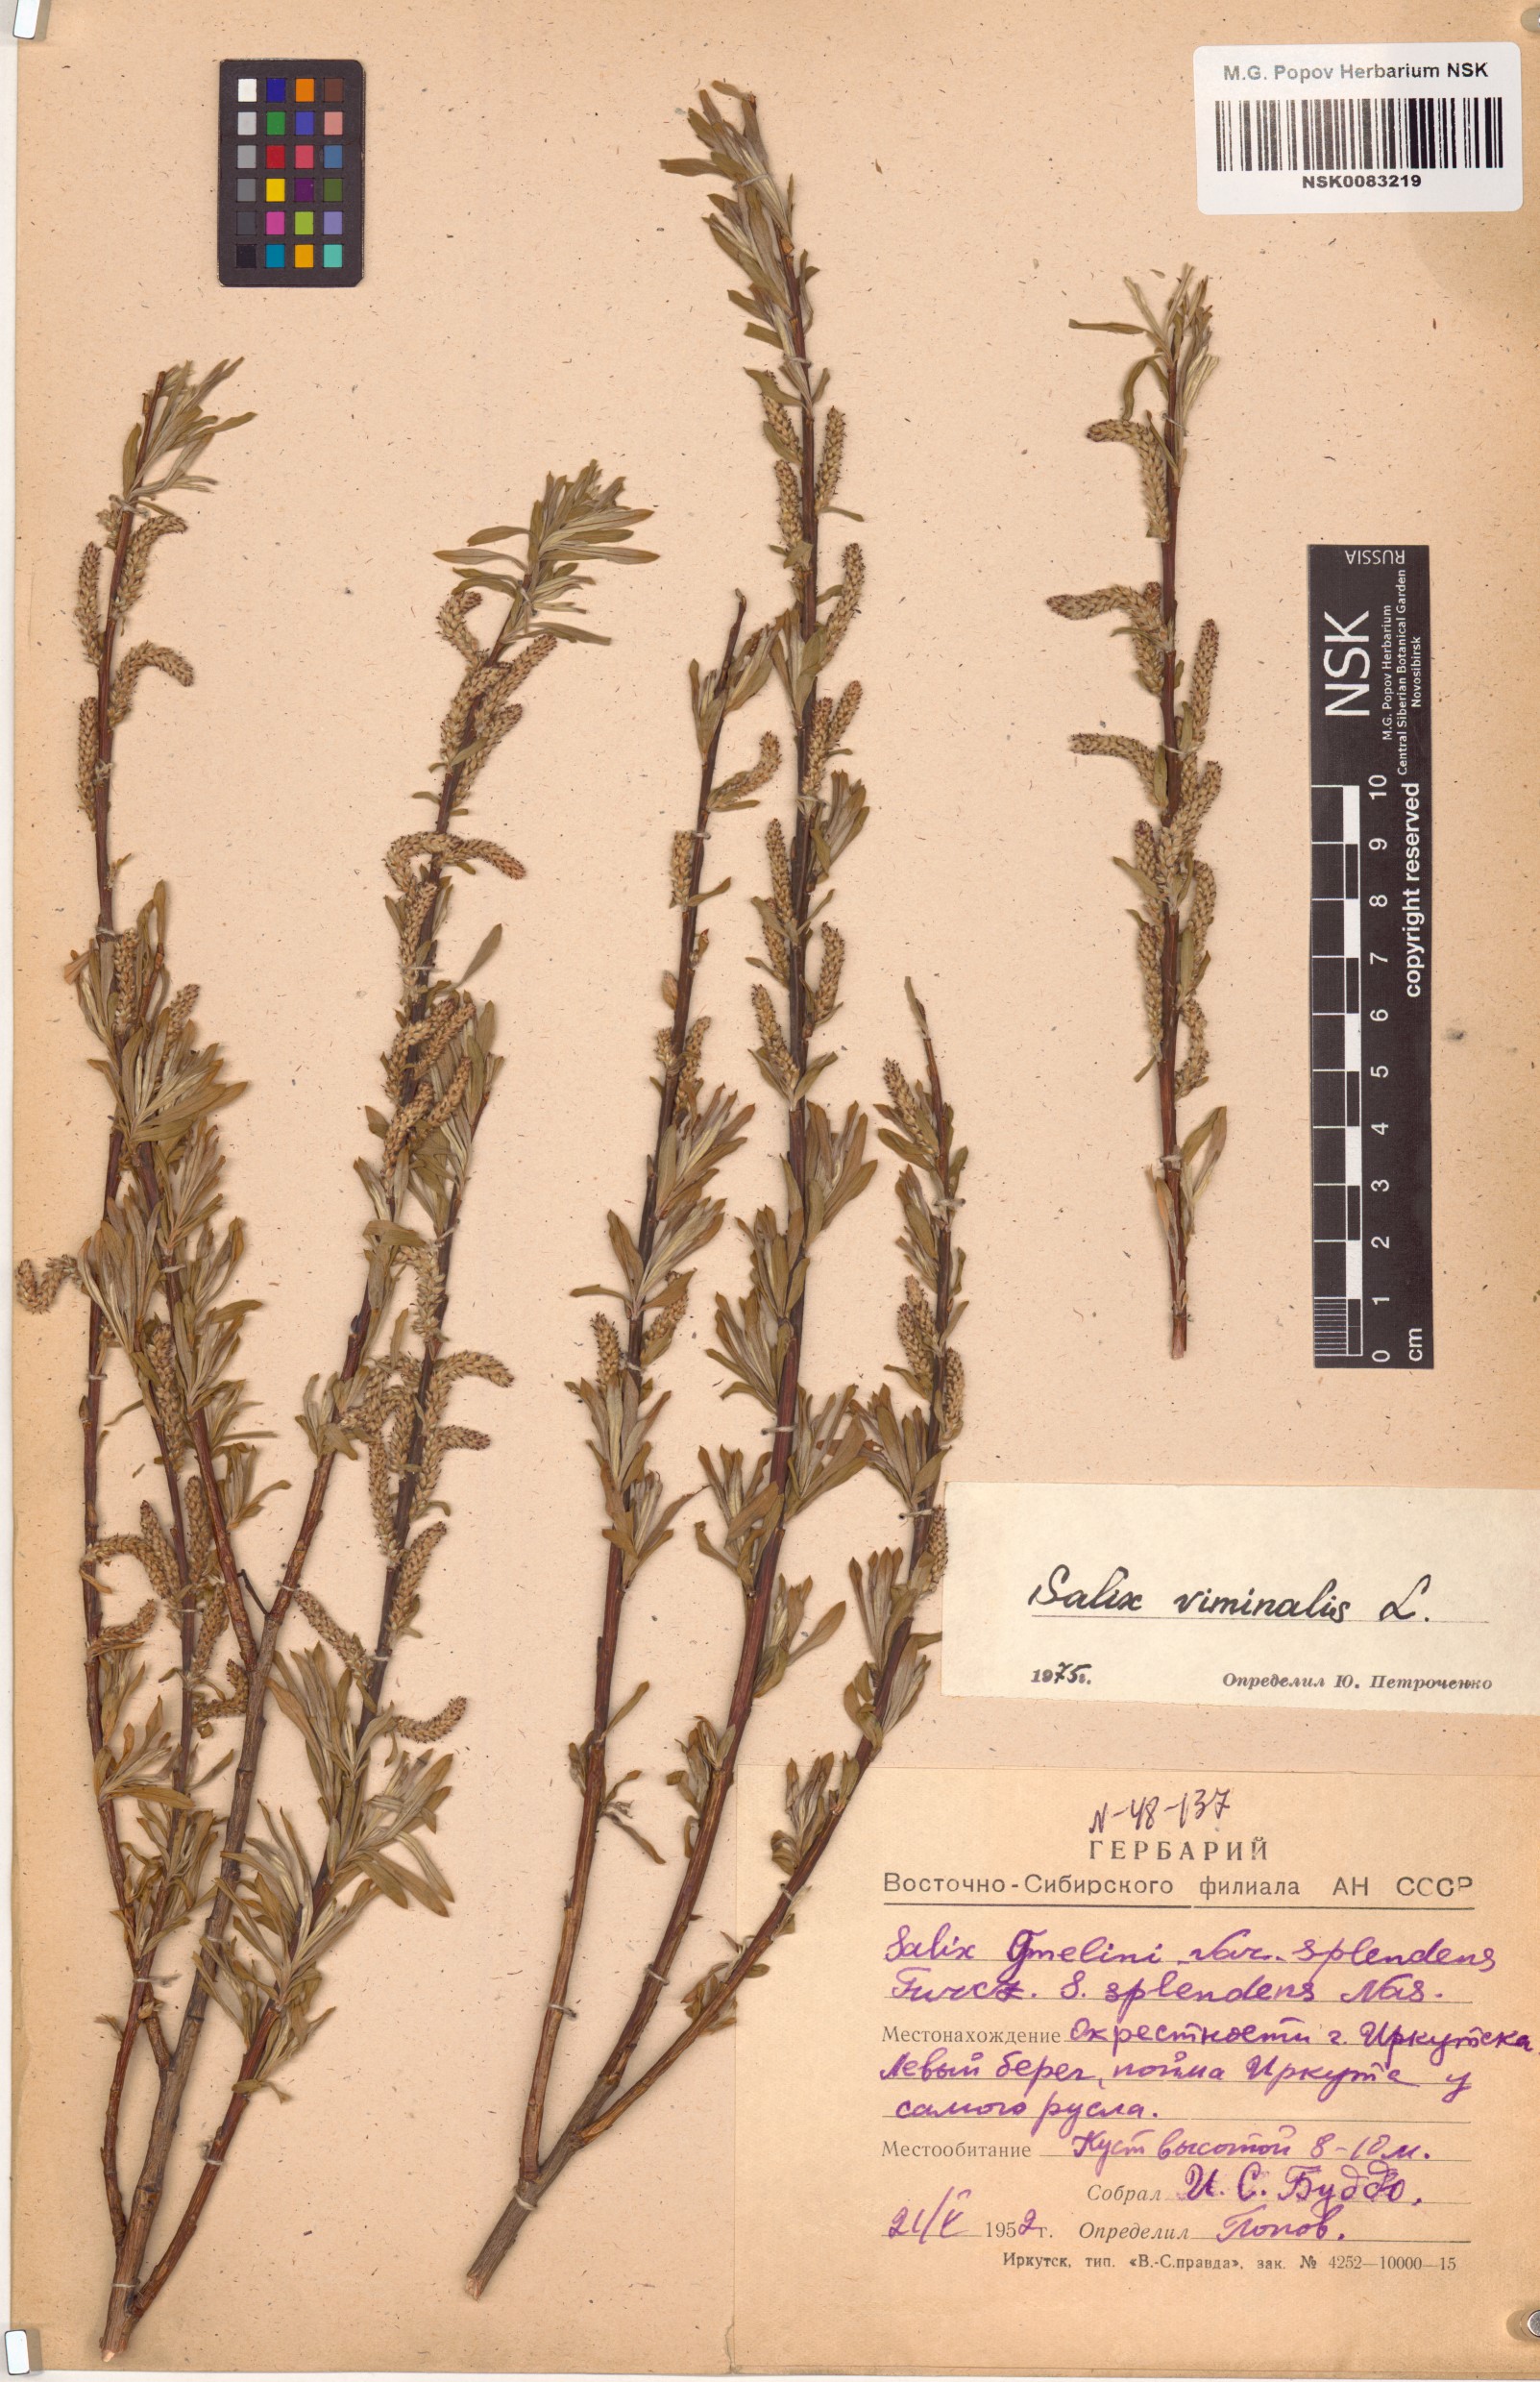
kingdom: Plantae
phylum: Tracheophyta
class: Magnoliopsida
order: Malpighiales
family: Salicaceae
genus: Salix
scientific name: Salix viminalis
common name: Osier
